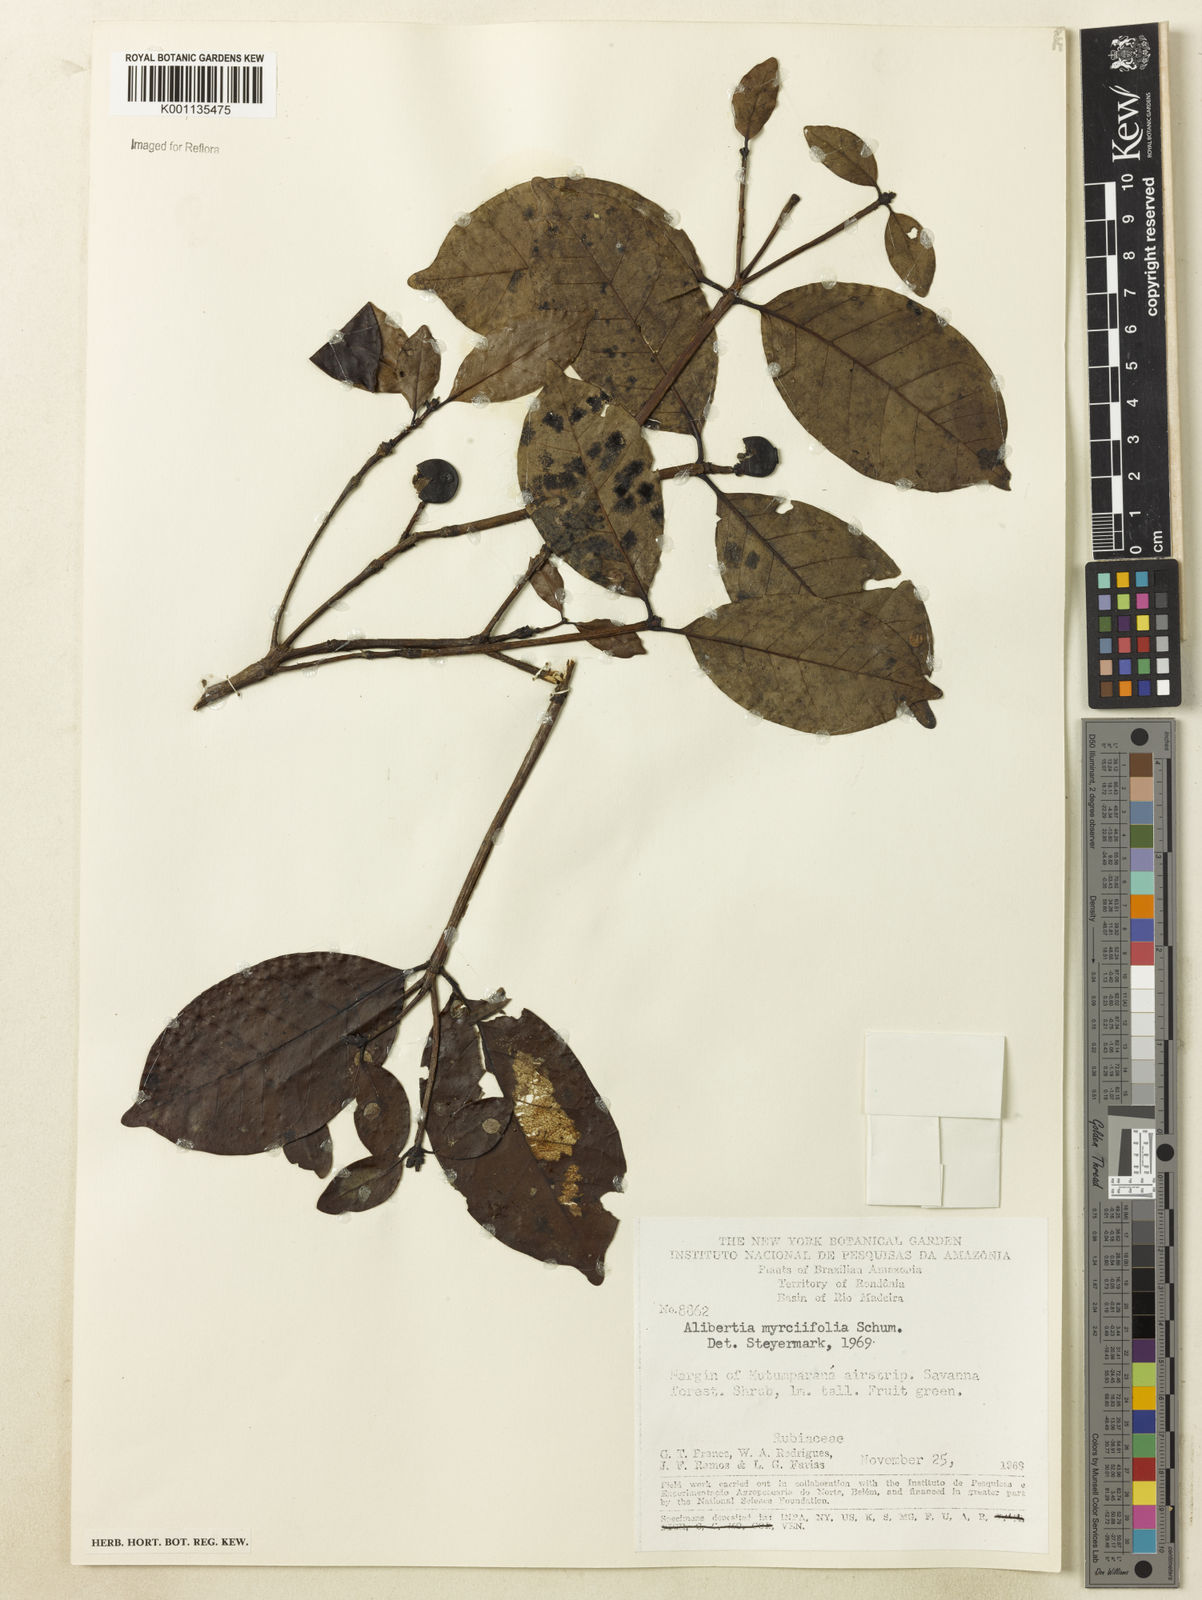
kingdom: Plantae
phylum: Tracheophyta
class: Magnoliopsida
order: Gentianales
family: Rubiaceae
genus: Cordiera
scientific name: Cordiera myrciifolia
